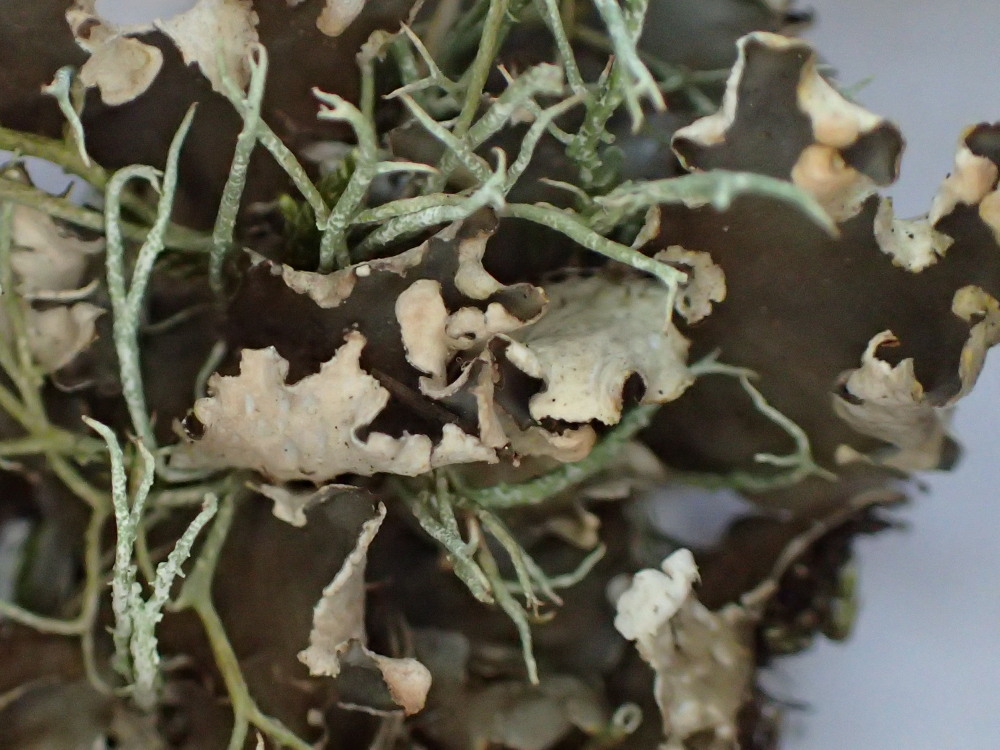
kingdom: Fungi
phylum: Ascomycota
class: Lecanoromycetes
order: Peltigerales
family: Peltigeraceae
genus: Peltigera
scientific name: Peltigera hymenina
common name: hinde-skjoldlav
